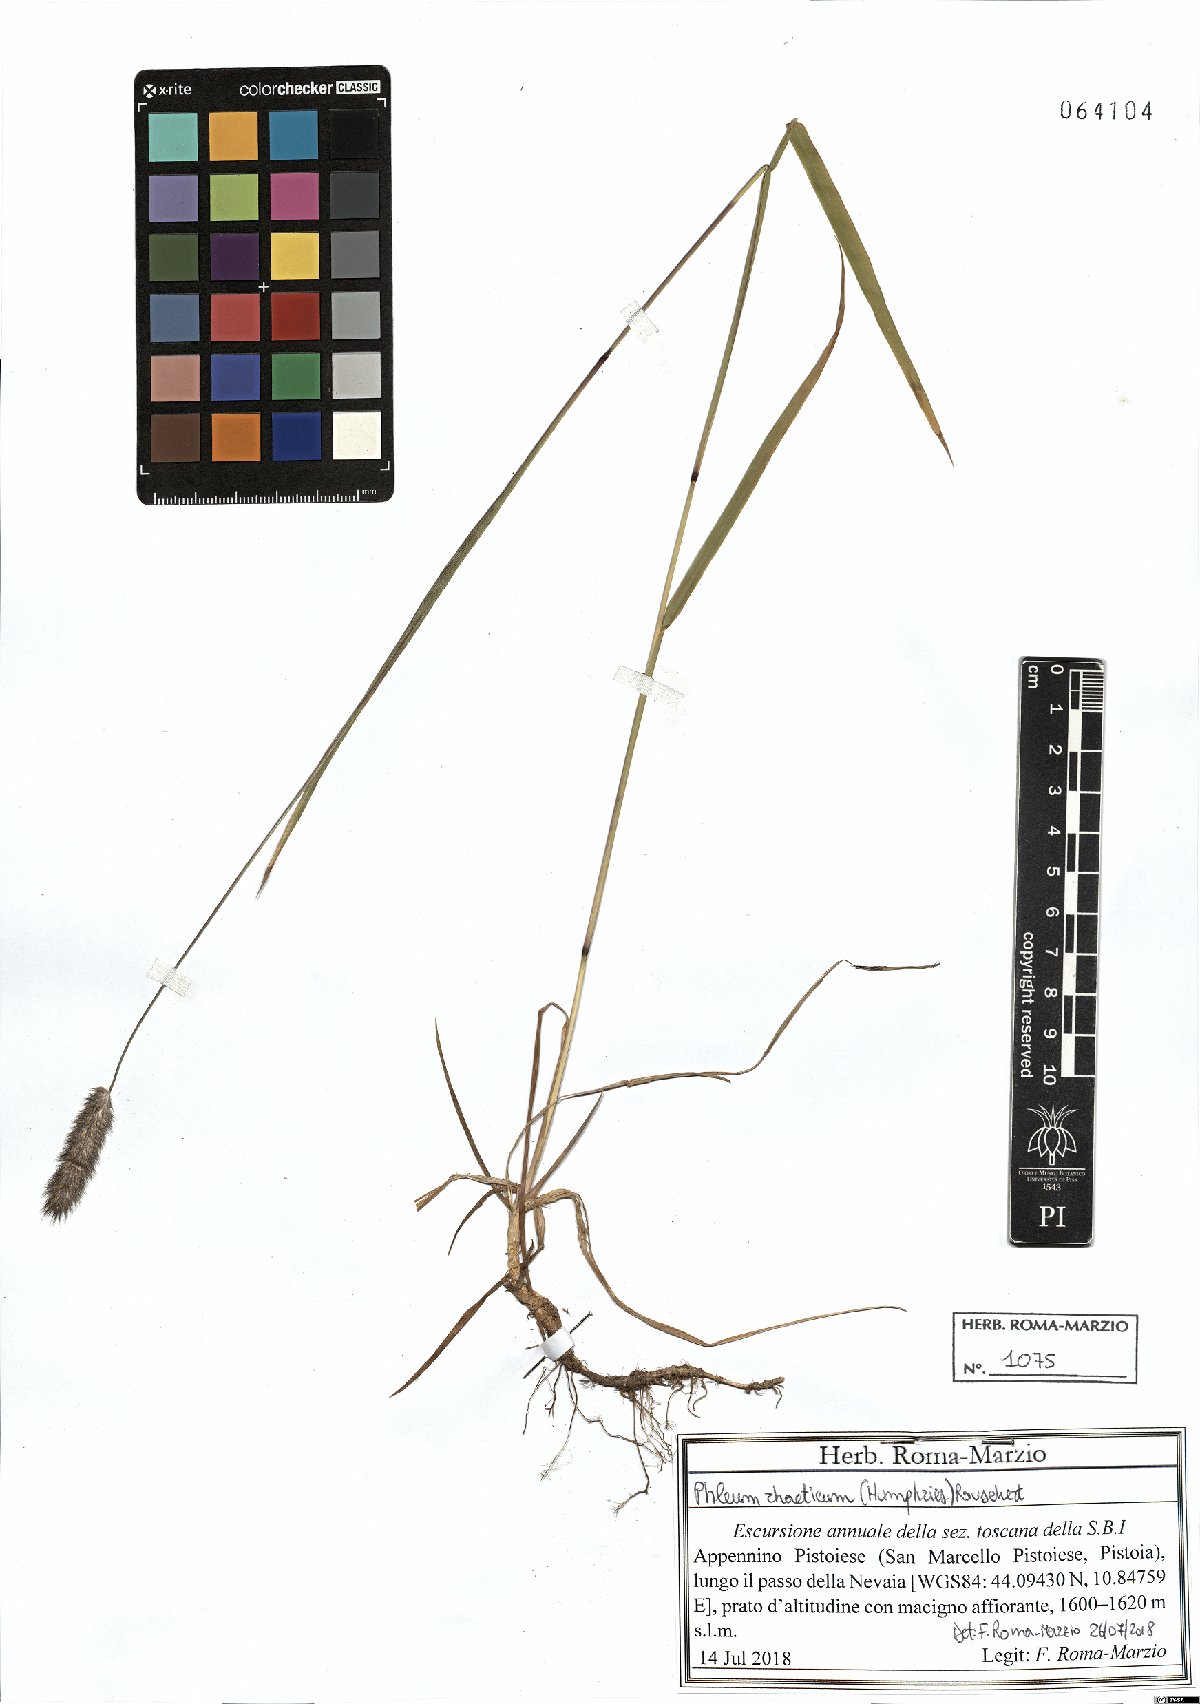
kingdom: Plantae
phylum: Tracheophyta
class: Liliopsida
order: Poales
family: Poaceae
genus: Phleum
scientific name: Phleum alpinum
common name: Alpine cat's-tail
